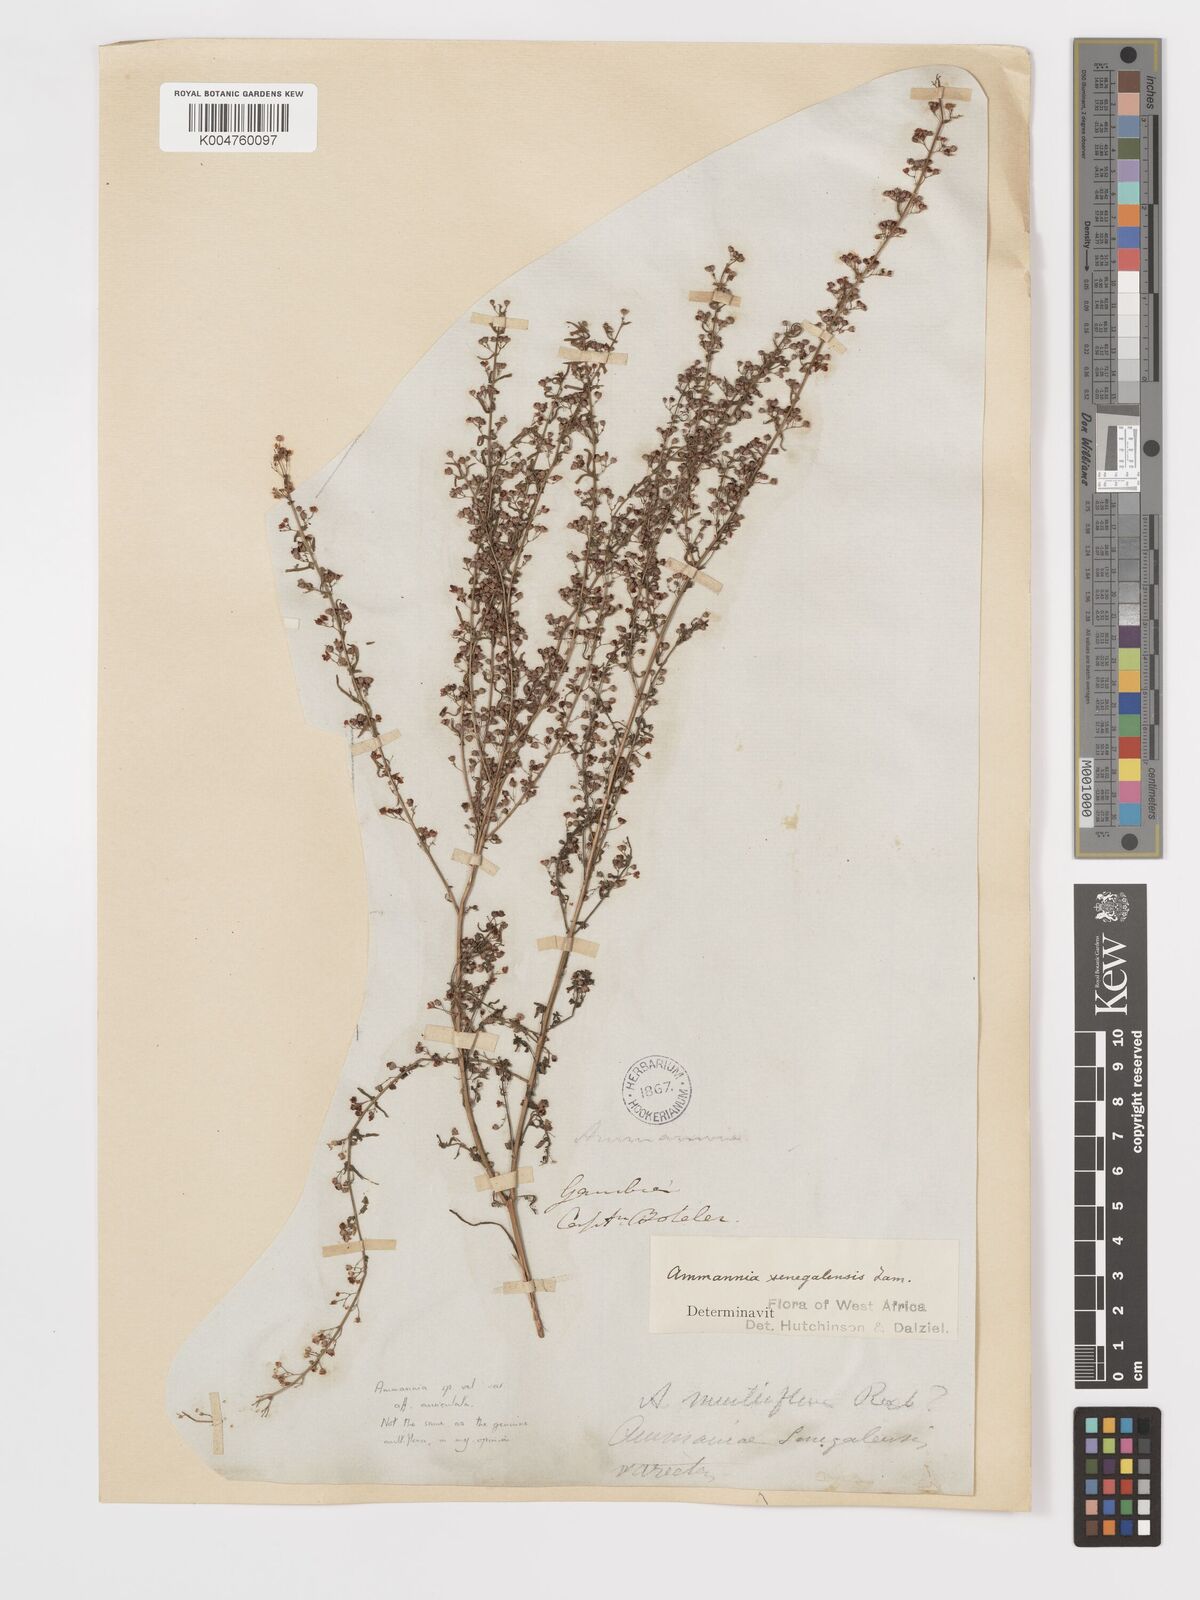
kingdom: Plantae
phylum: Tracheophyta
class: Magnoliopsida
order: Myrtales
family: Lythraceae
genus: Ammannia
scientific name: Ammannia prieuriana
